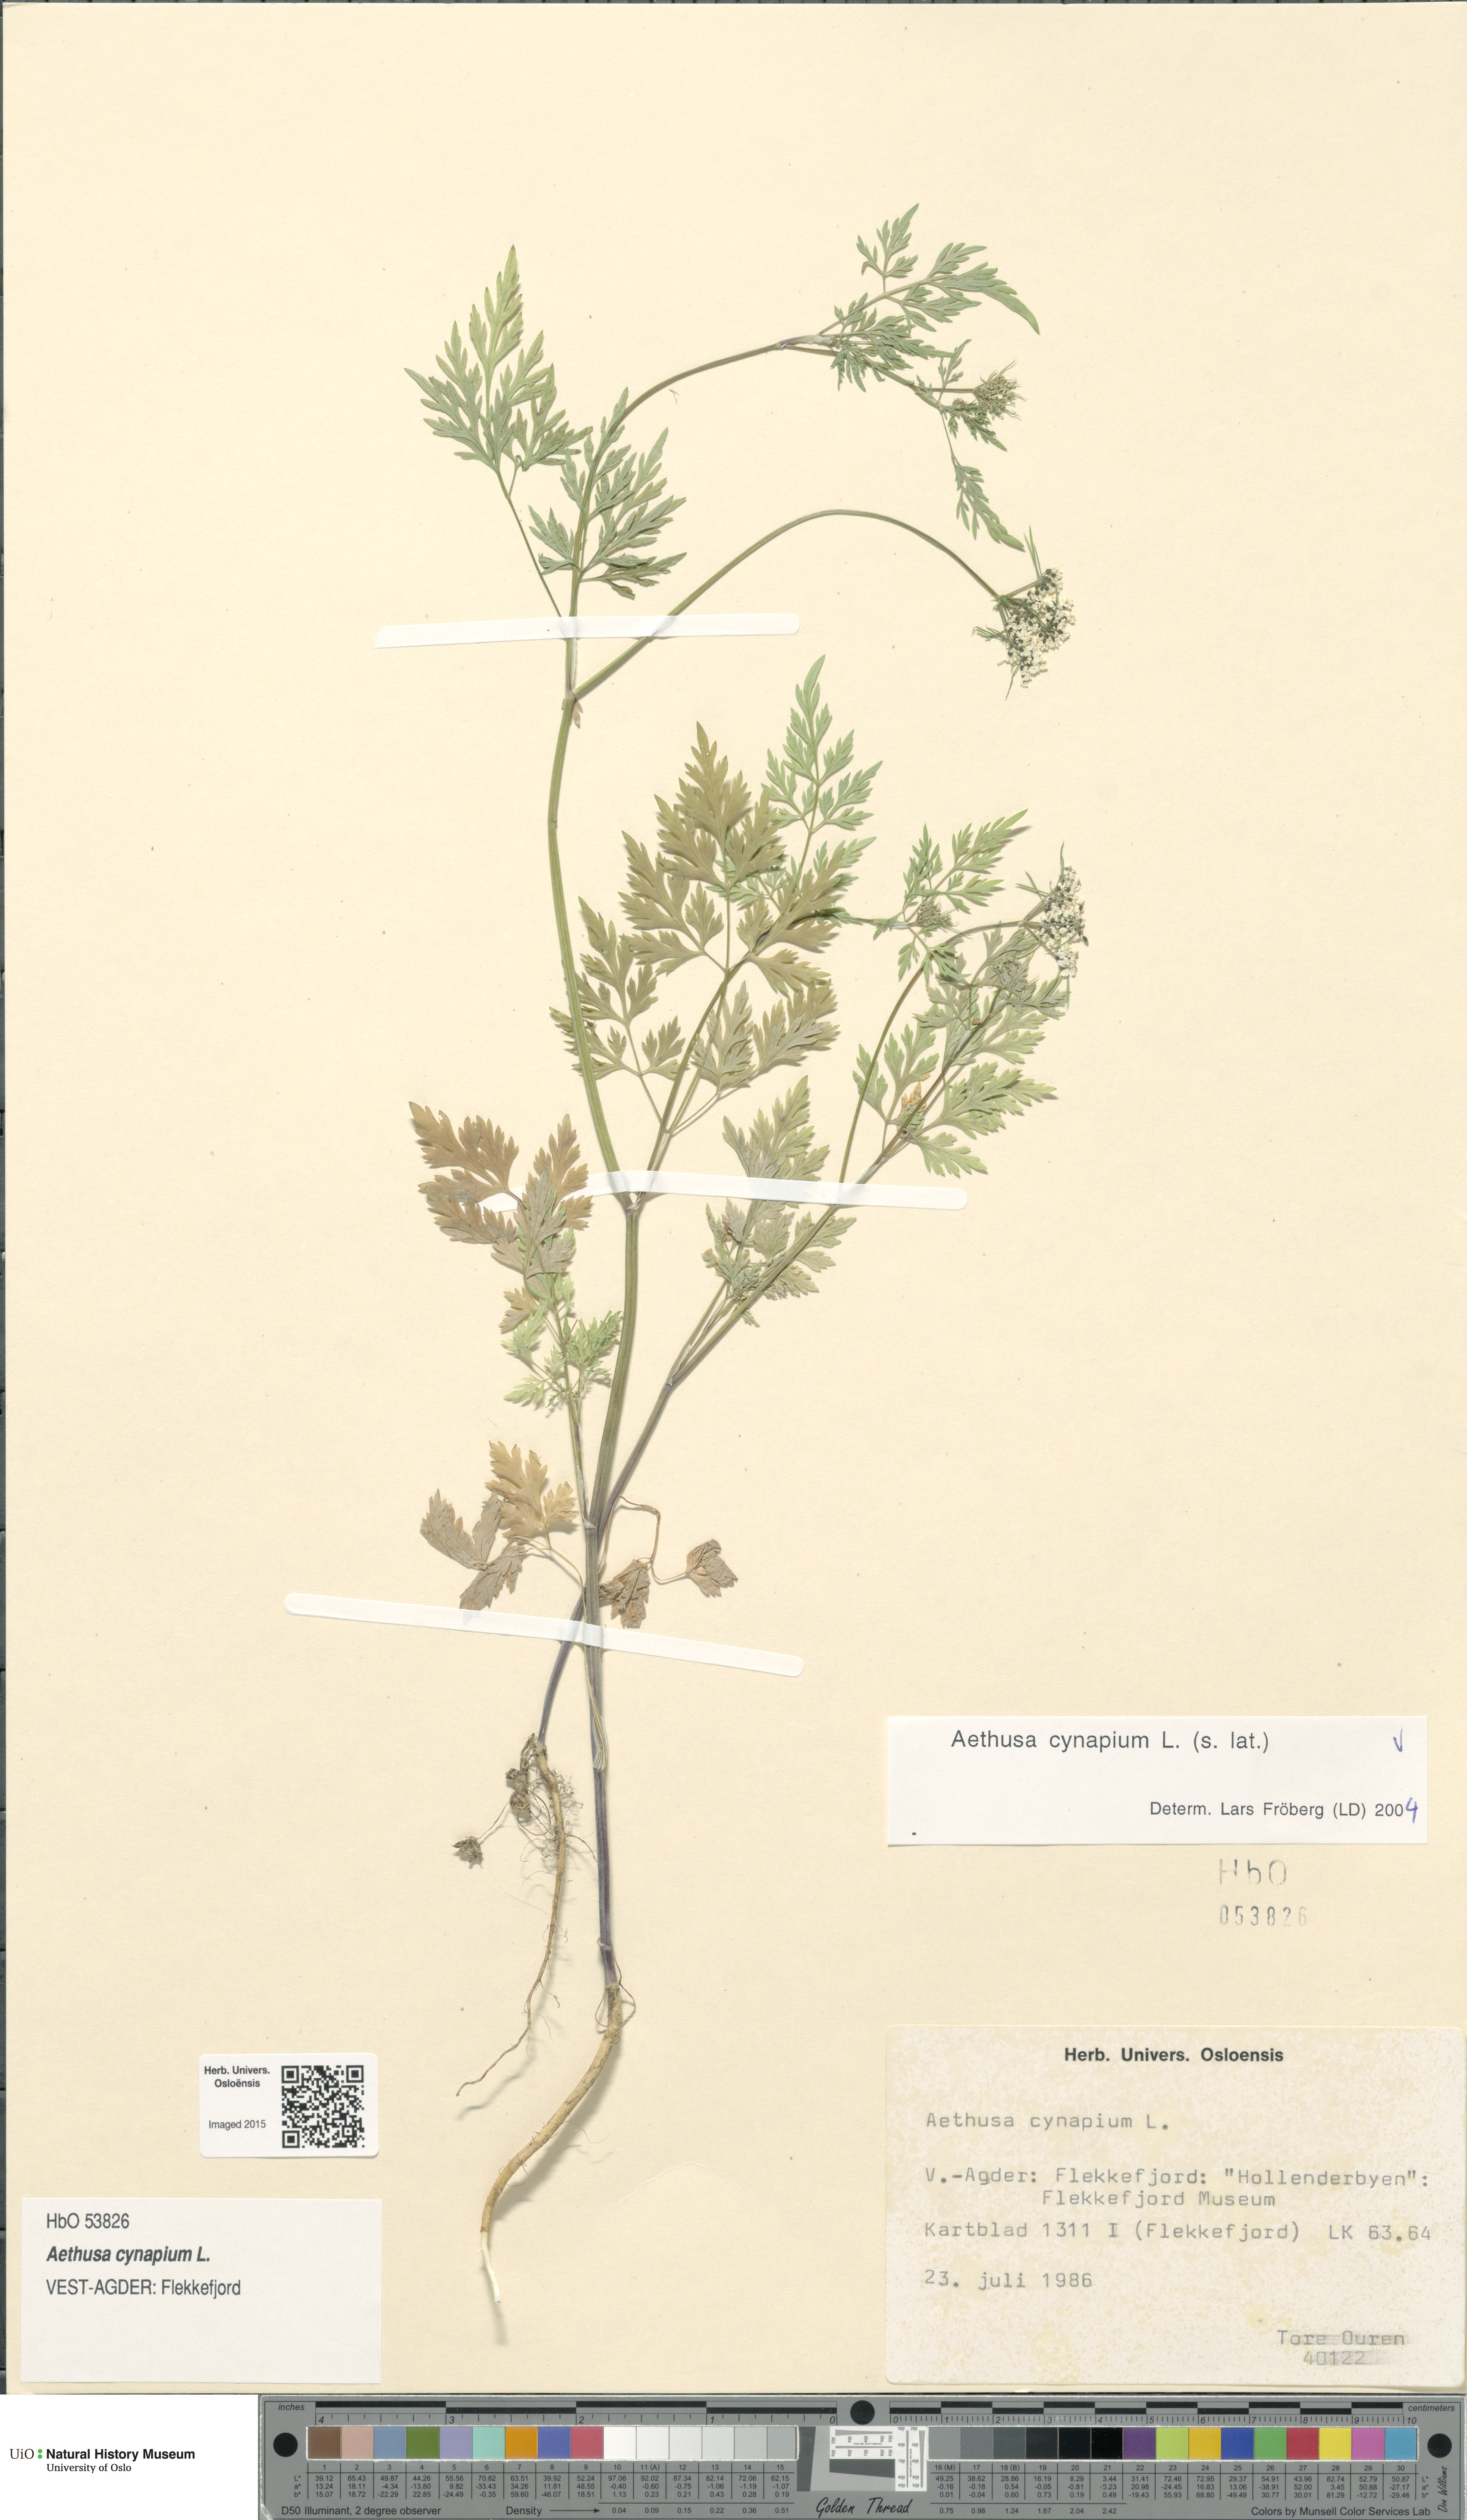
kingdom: Plantae
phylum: Tracheophyta
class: Magnoliopsida
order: Apiales
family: Apiaceae
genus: Aethusa
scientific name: Aethusa cynapium
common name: Fool's parsley
